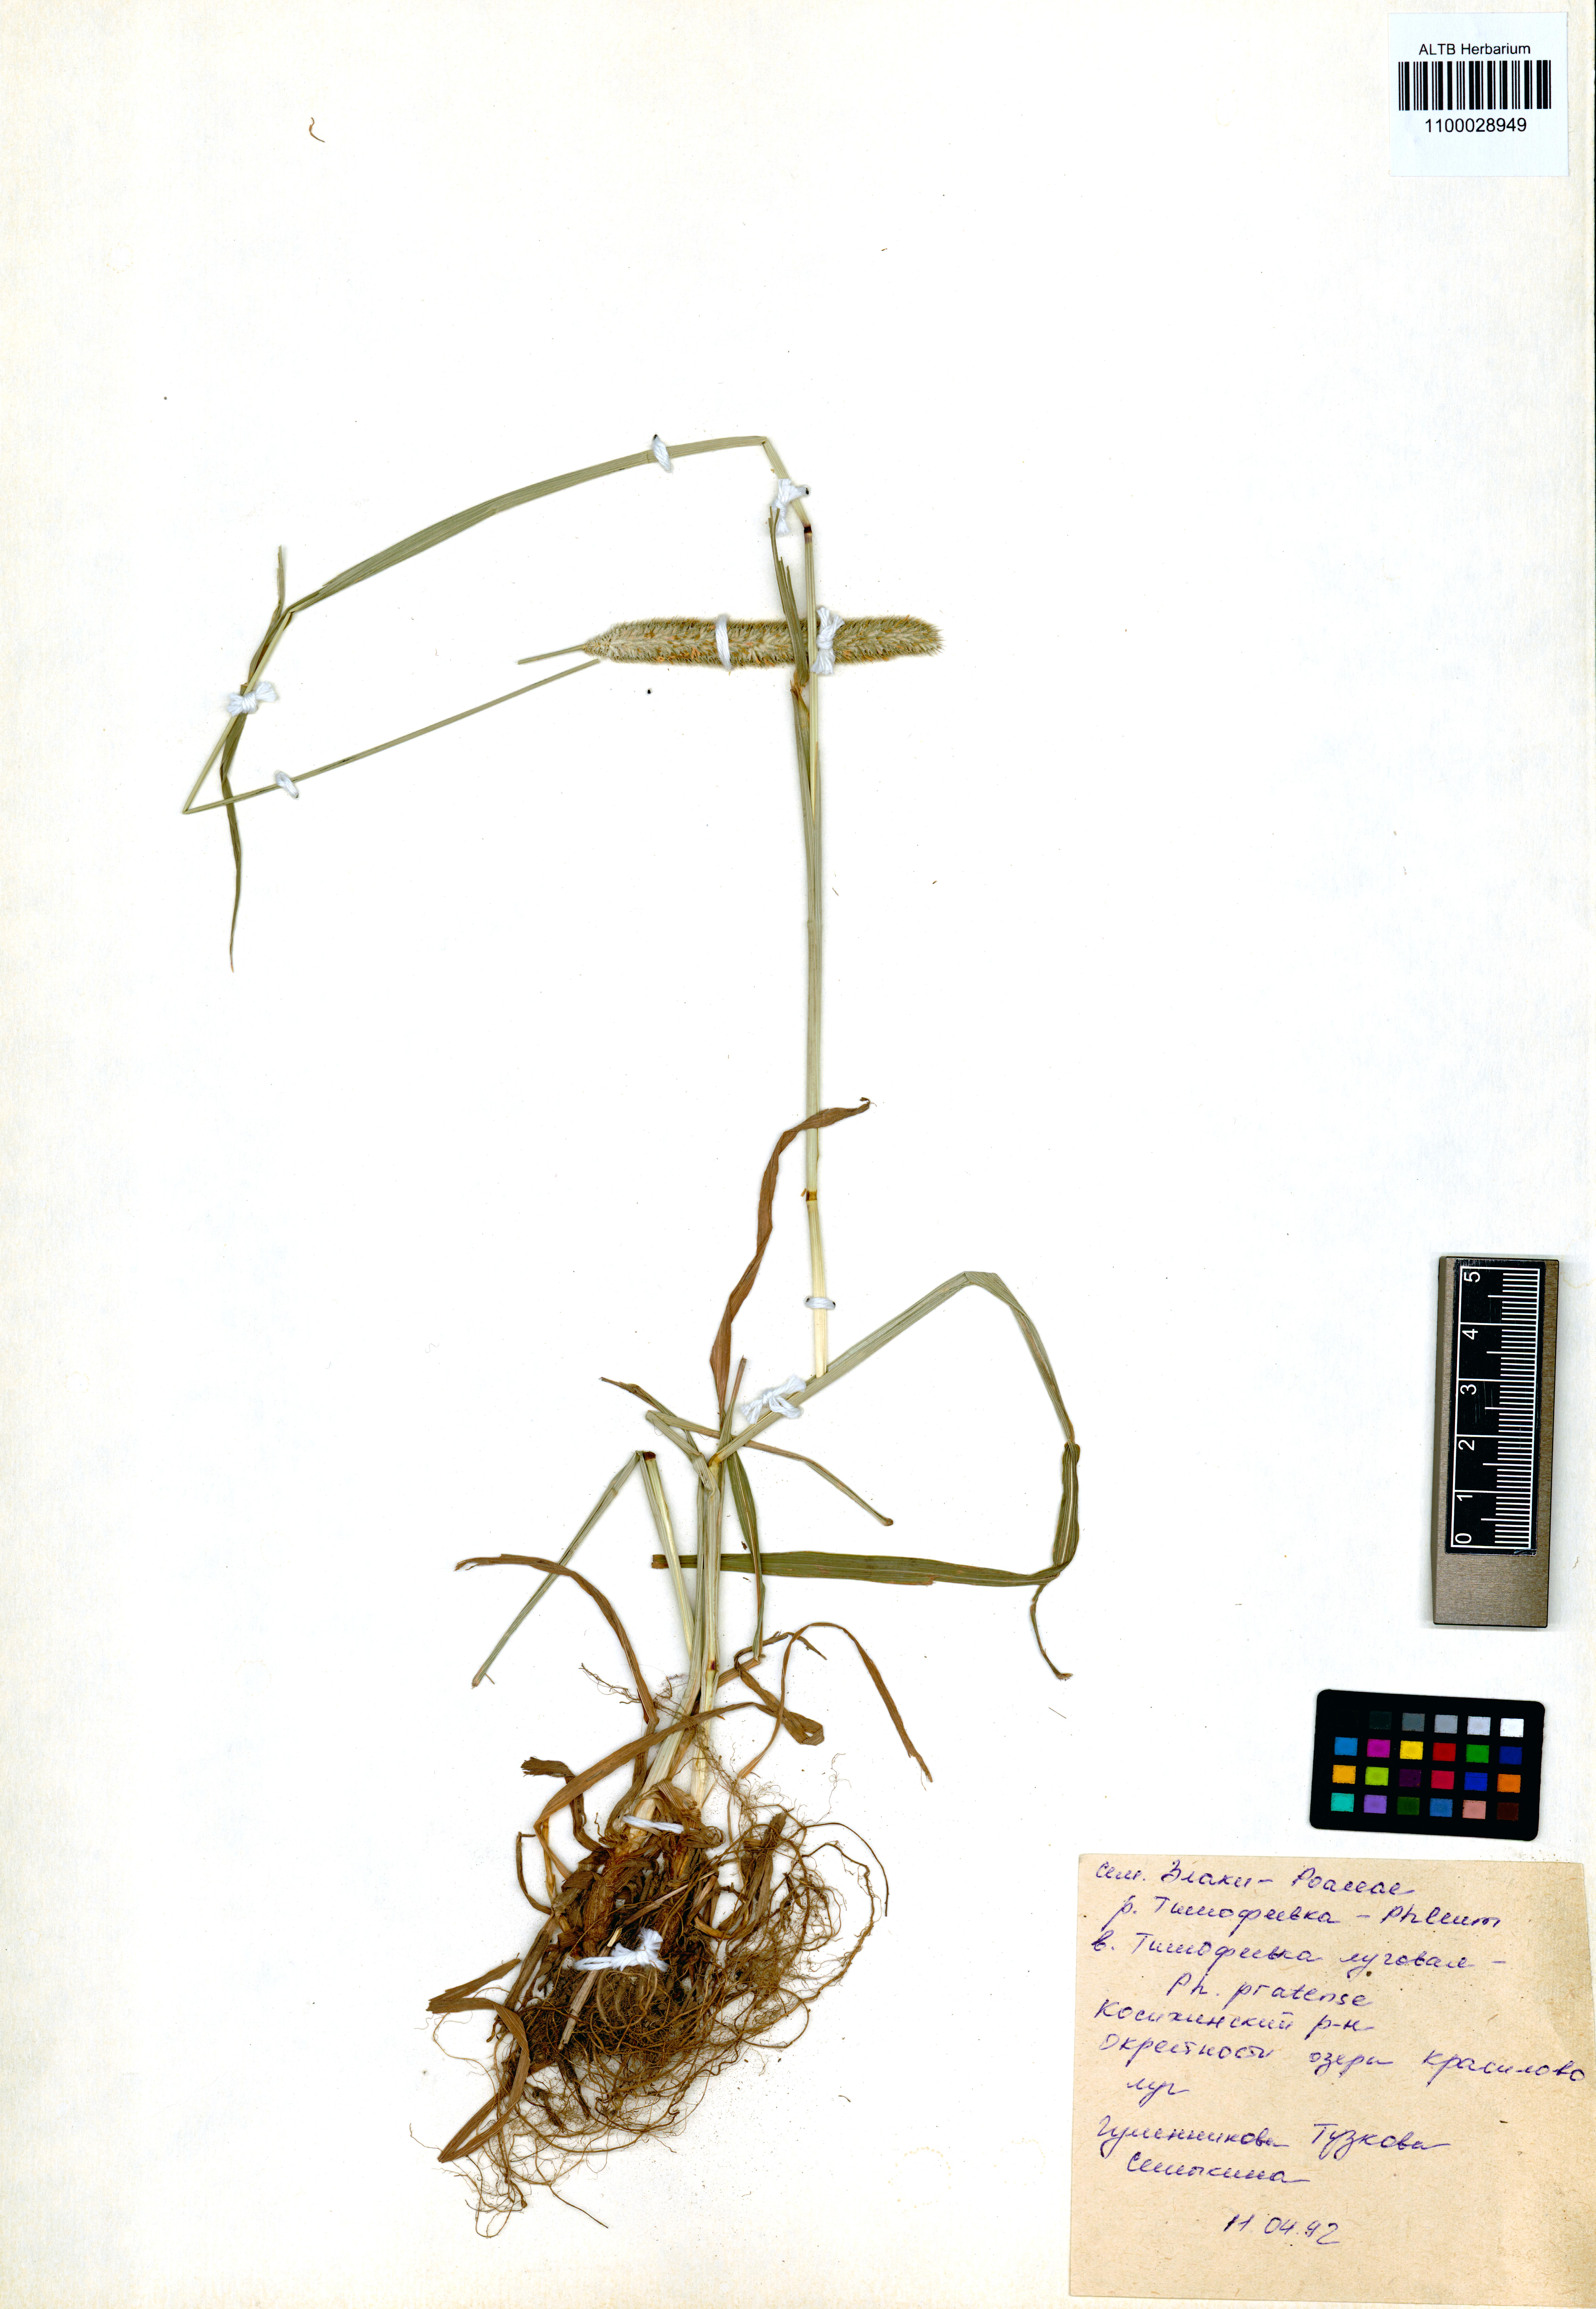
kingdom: Plantae
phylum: Tracheophyta
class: Liliopsida
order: Poales
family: Poaceae
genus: Phleum
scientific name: Phleum pratense
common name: Timothy grass
